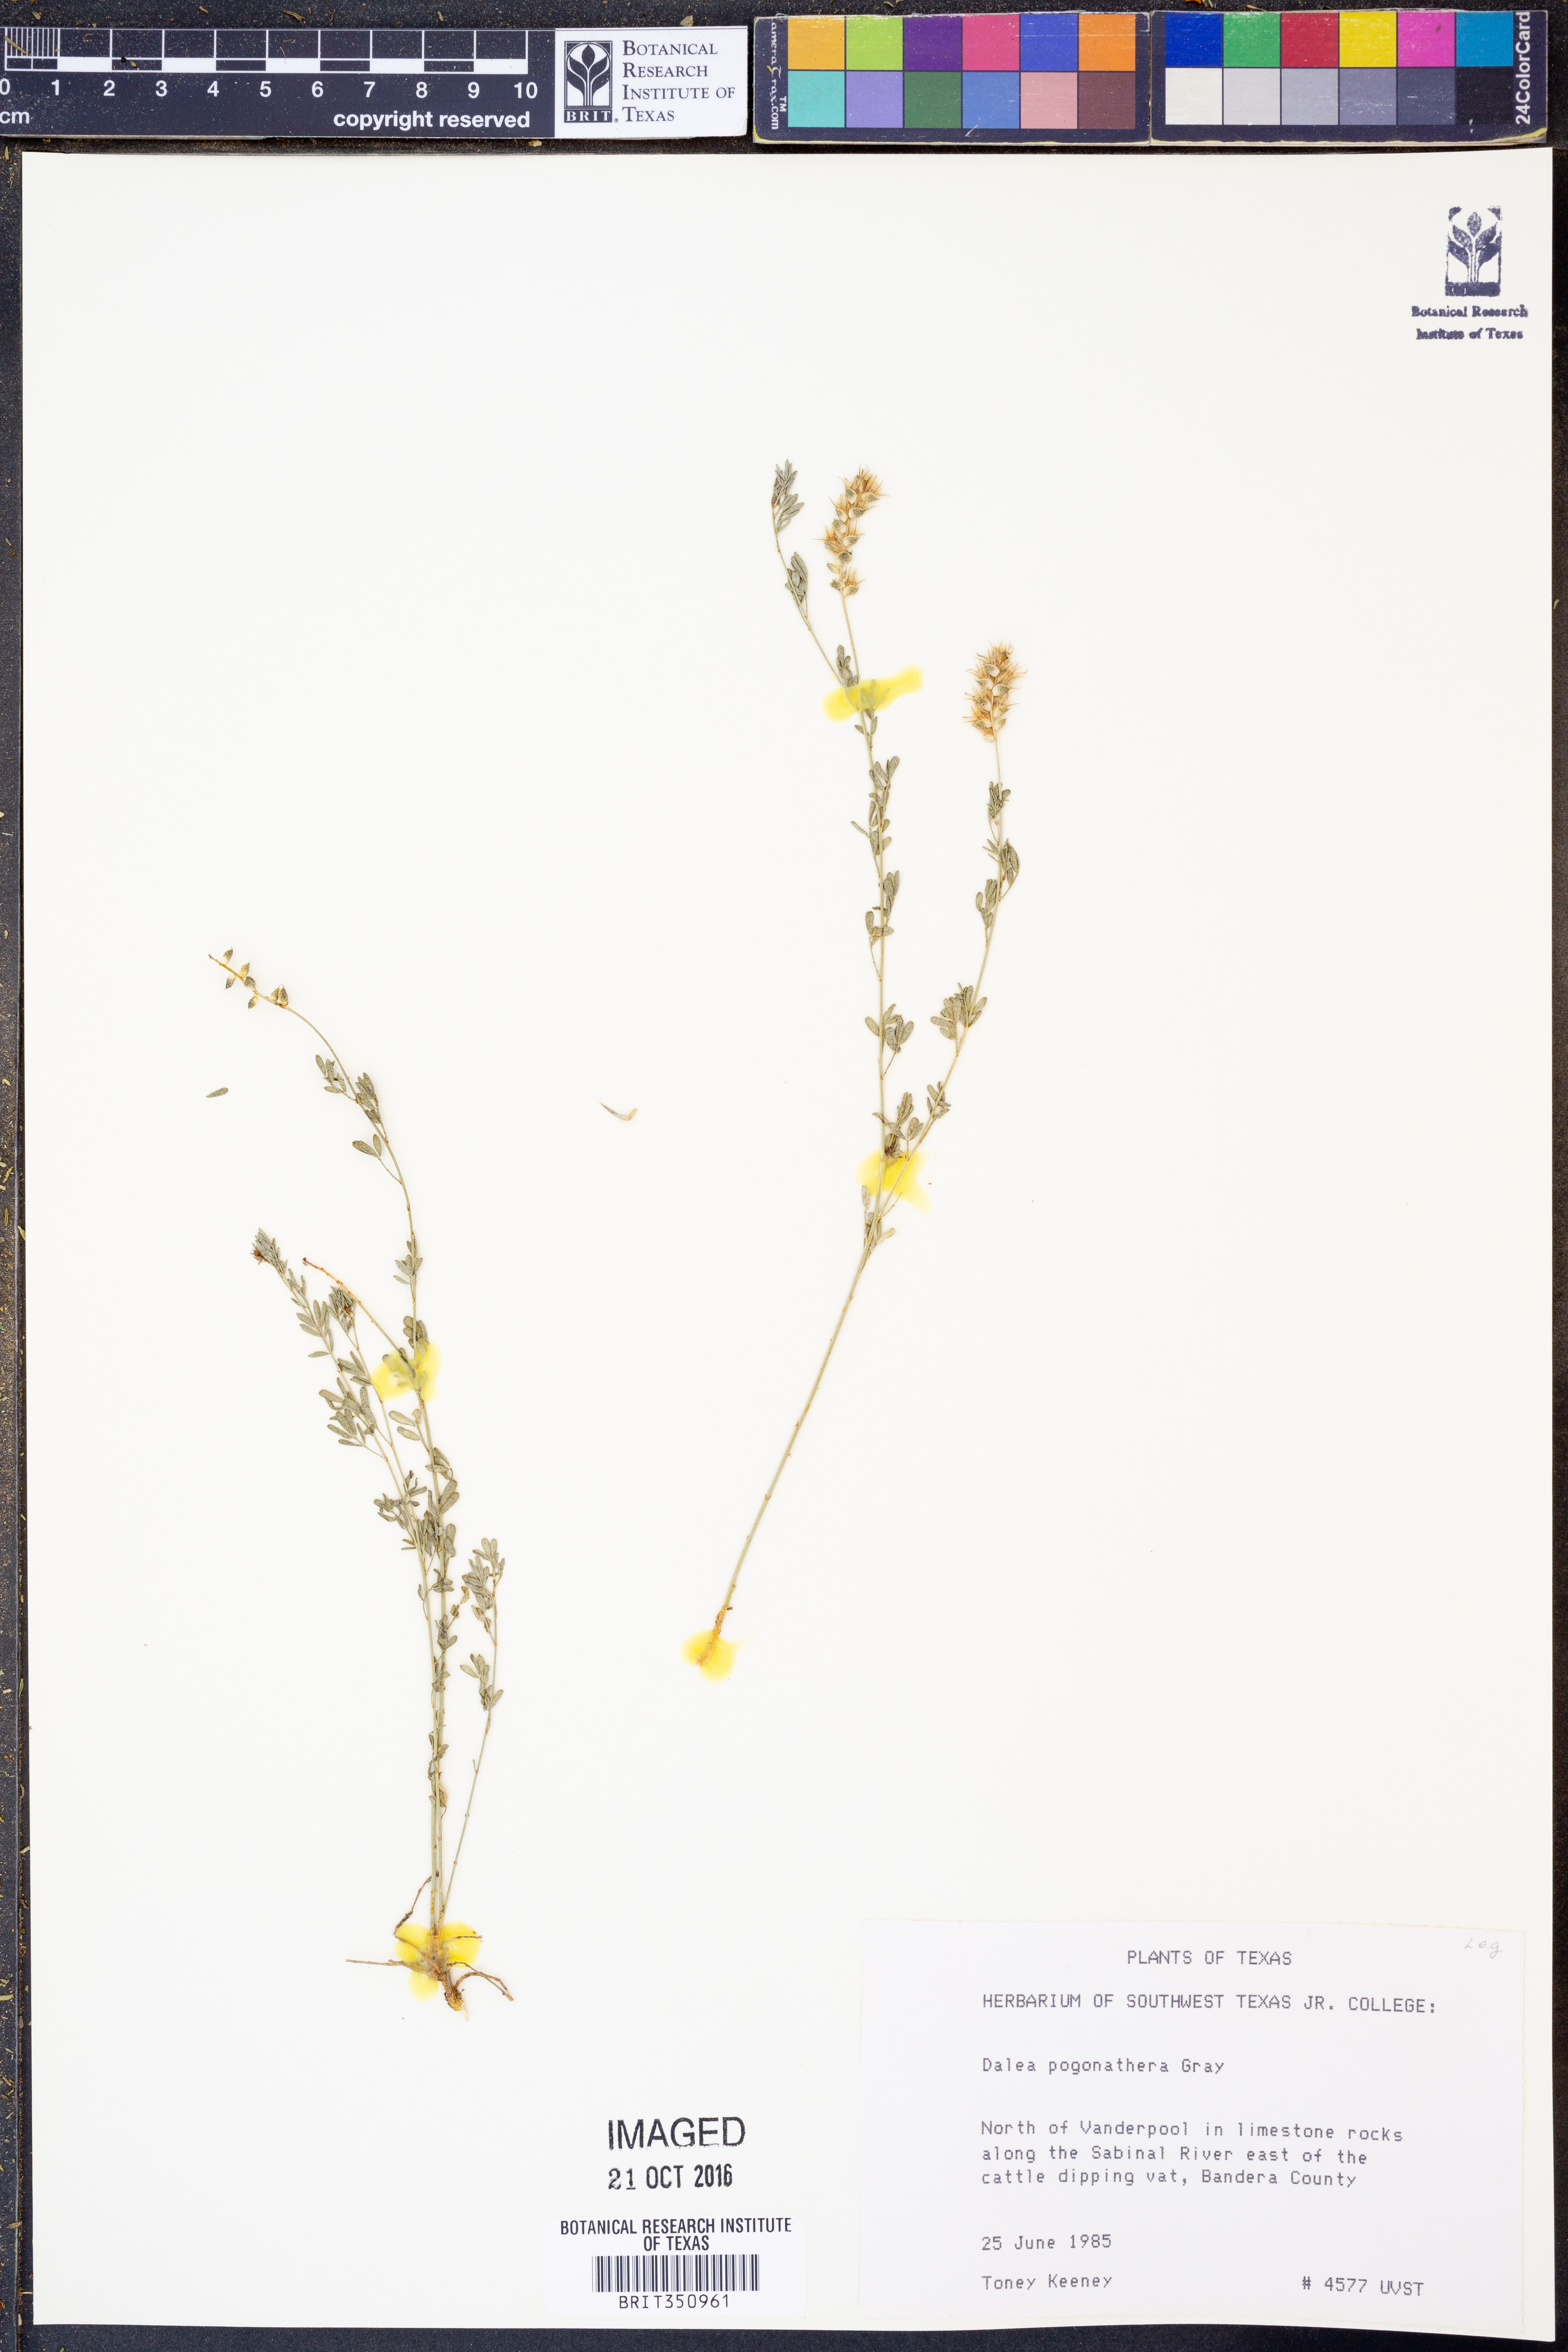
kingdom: Plantae
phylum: Tracheophyta
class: Magnoliopsida
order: Fabales
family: Fabaceae
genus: Dalea
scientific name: Dalea pogonathera
